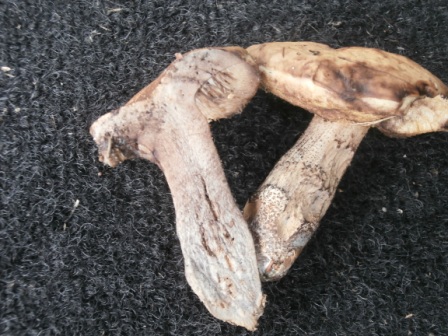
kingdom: Fungi
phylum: Basidiomycota
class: Agaricomycetes
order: Boletales
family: Boletaceae
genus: Leccinellum
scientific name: Leccinellum pseudoscabrum
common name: avnbøg-skælrørhat
